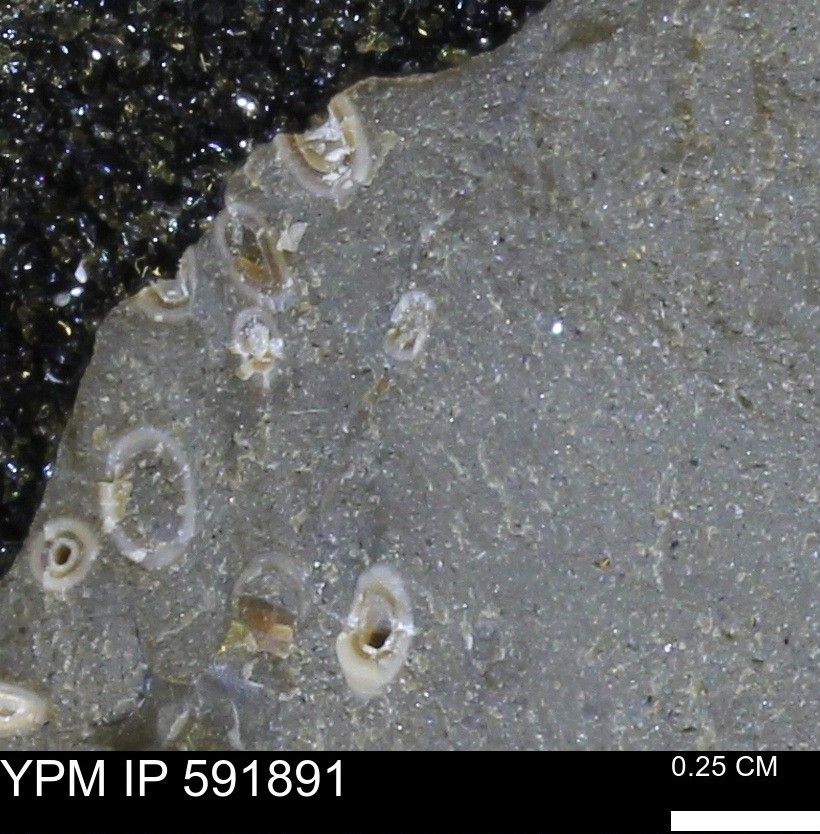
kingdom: Animalia
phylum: Annelida
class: Polychaeta
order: Sabellida
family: Serpulidae
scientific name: Serpulidae
